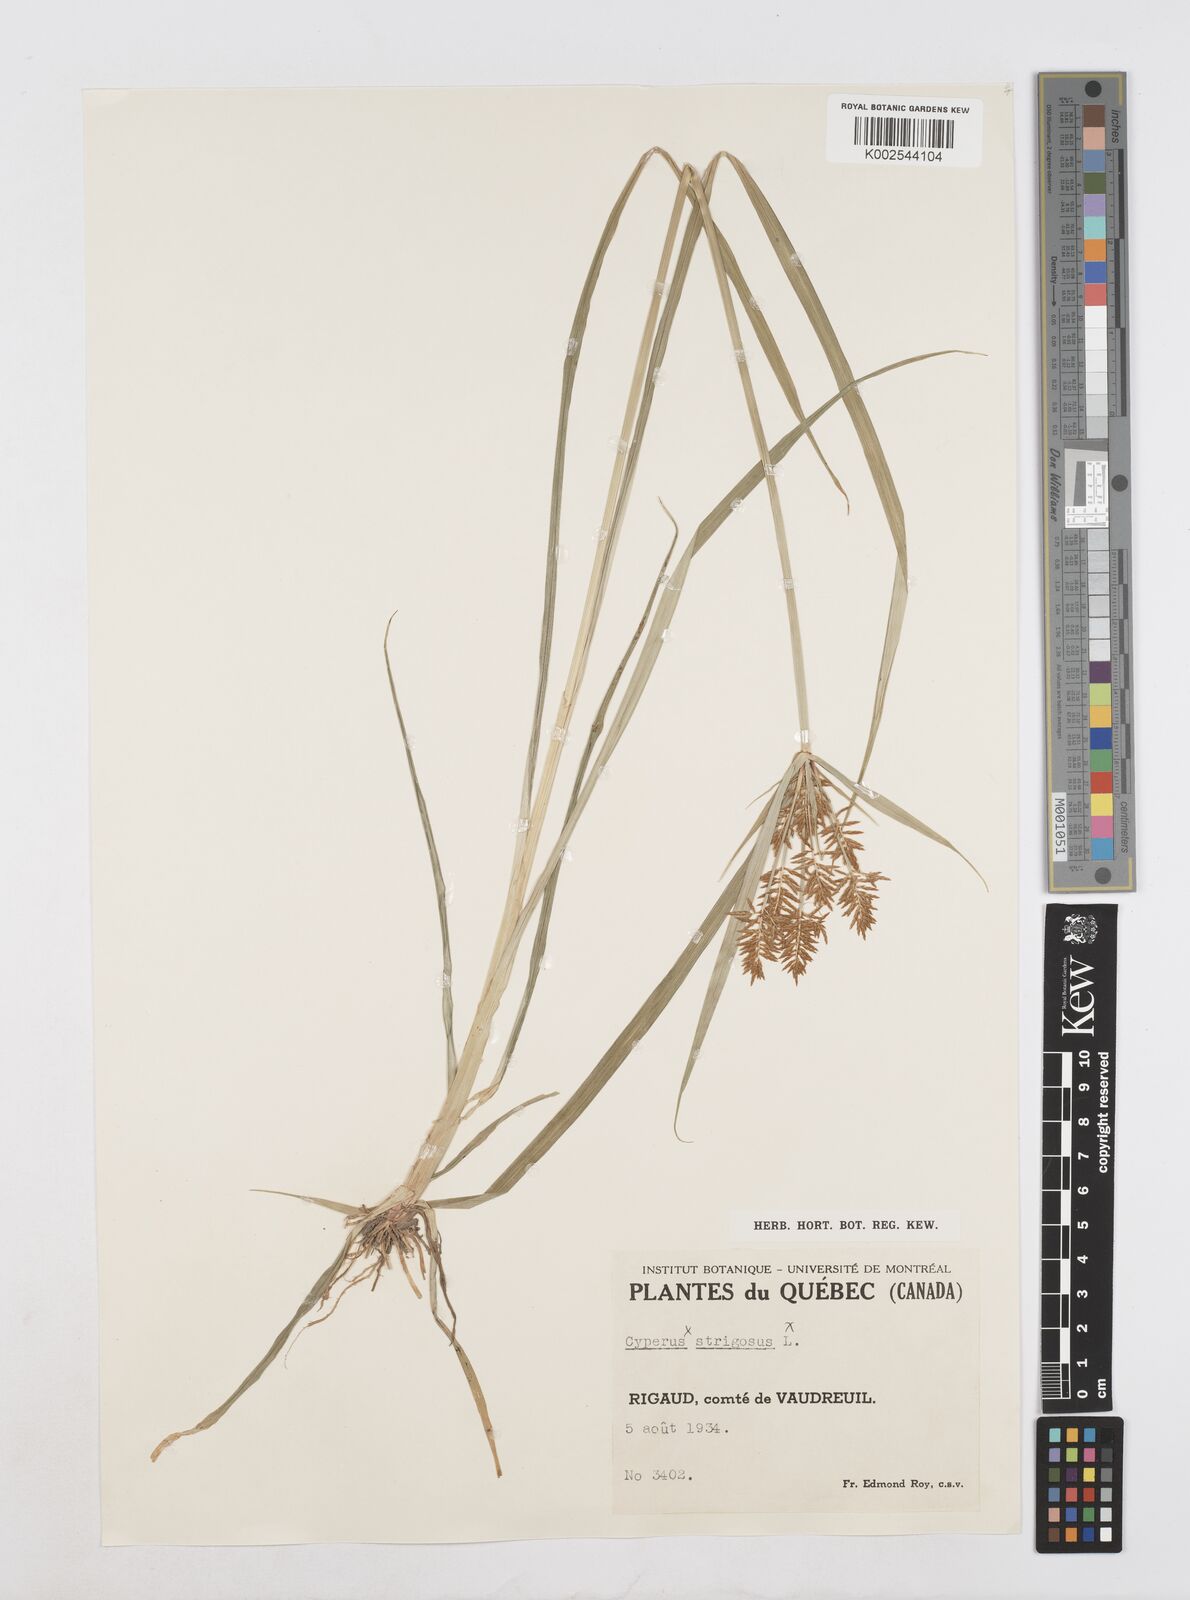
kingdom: Plantae
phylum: Tracheophyta
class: Liliopsida
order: Poales
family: Cyperaceae
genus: Cyperus
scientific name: Cyperus
